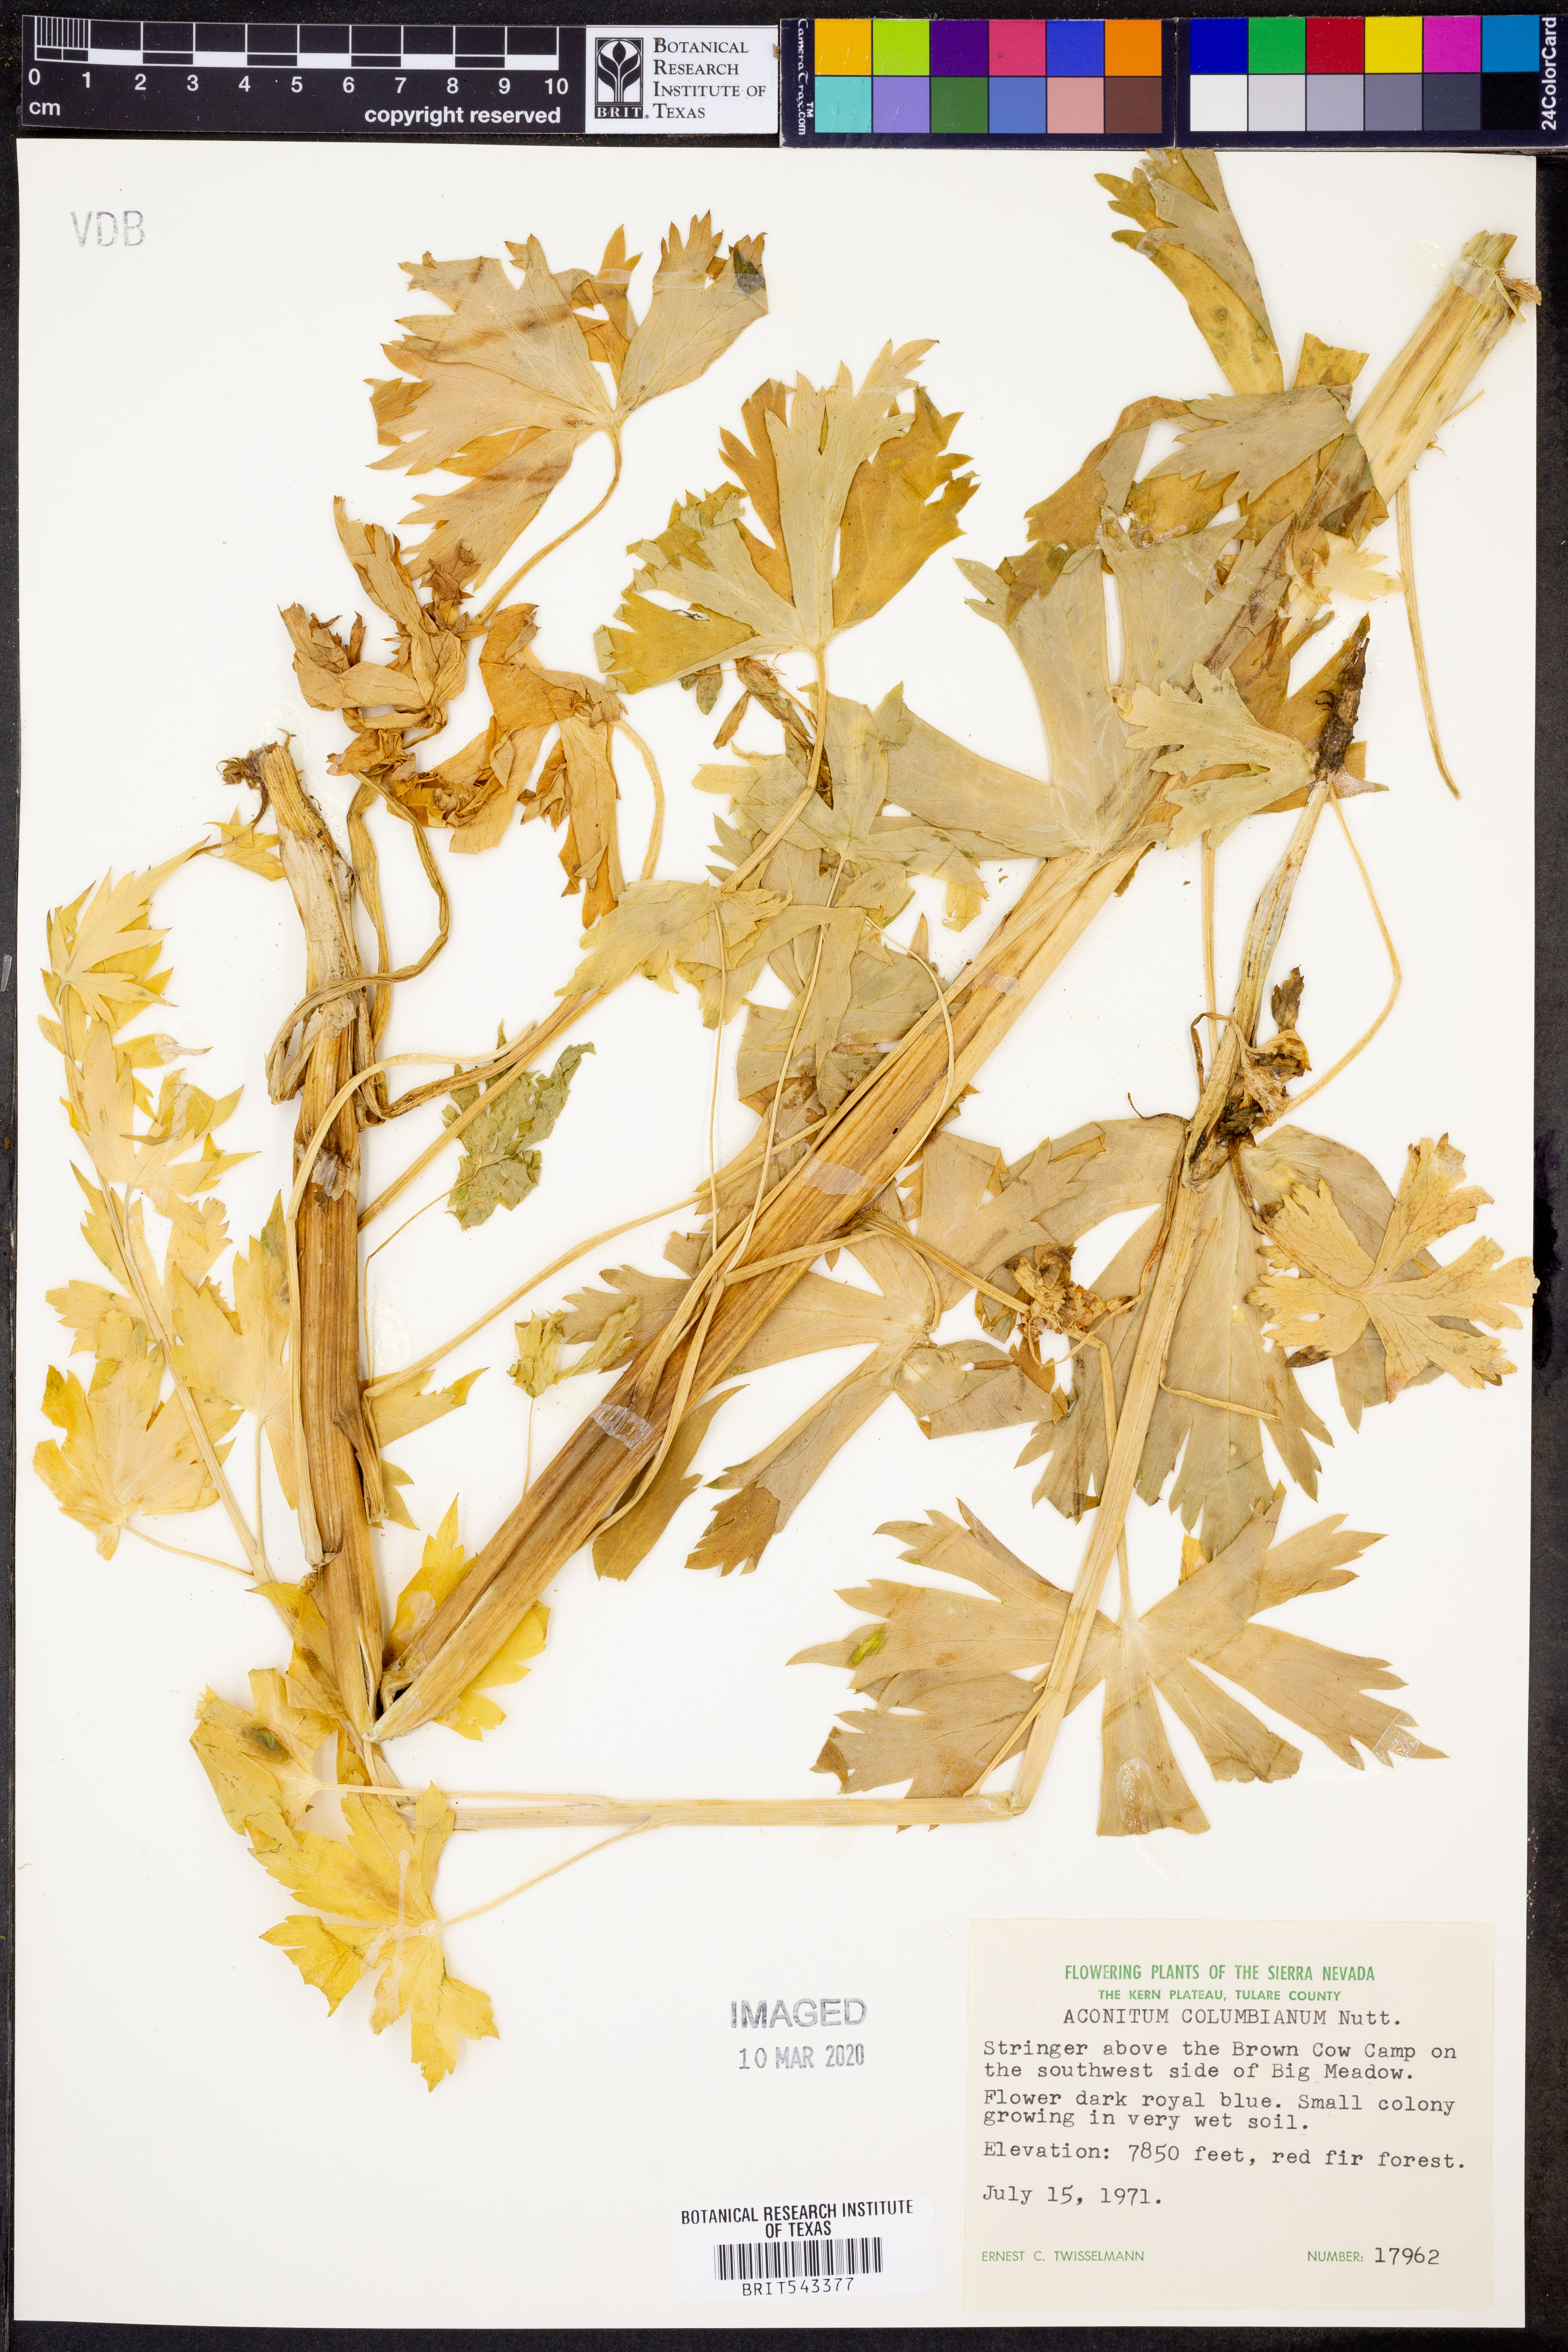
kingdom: Plantae
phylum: Tracheophyta
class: Magnoliopsida
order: Ranunculales
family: Ranunculaceae
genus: Aconitum
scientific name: Aconitum columbianum
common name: Columbia aconite
